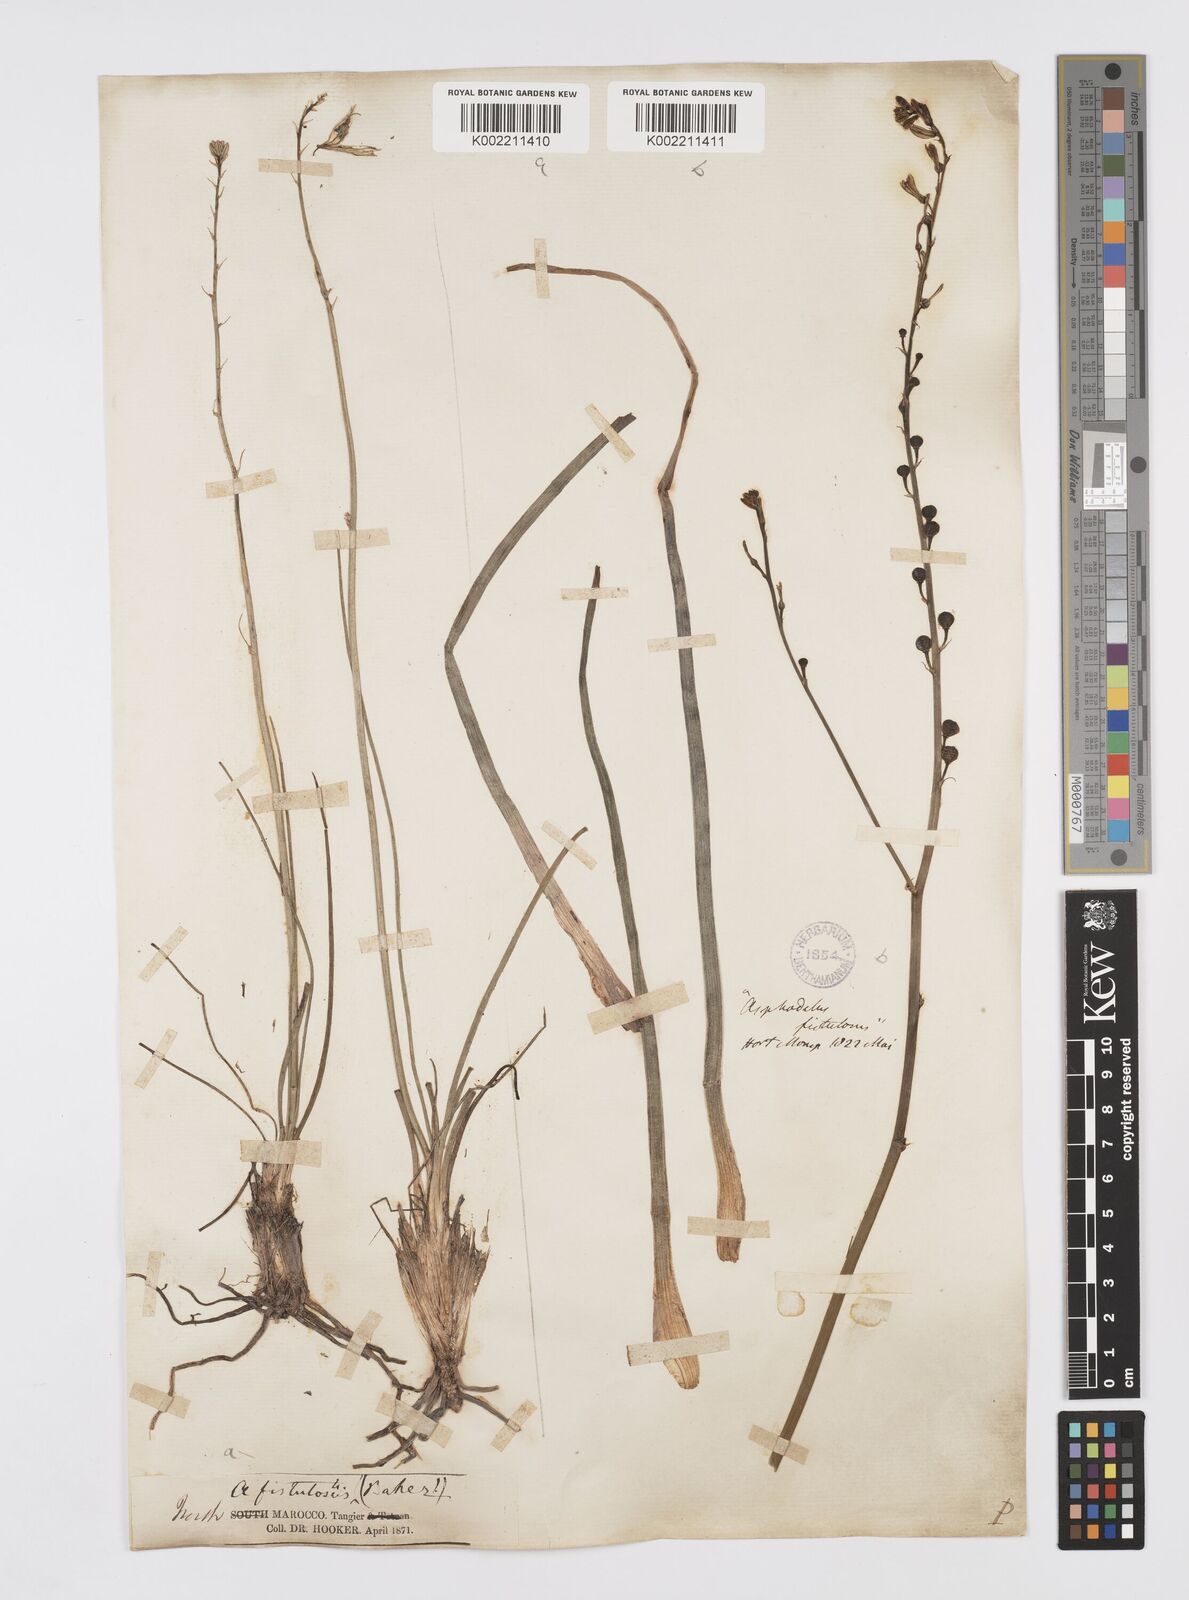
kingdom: Plantae
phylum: Tracheophyta
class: Liliopsida
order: Asparagales
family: Asphodelaceae
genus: Asphodelus
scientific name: Asphodelus fistulosus
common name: Onionweed
